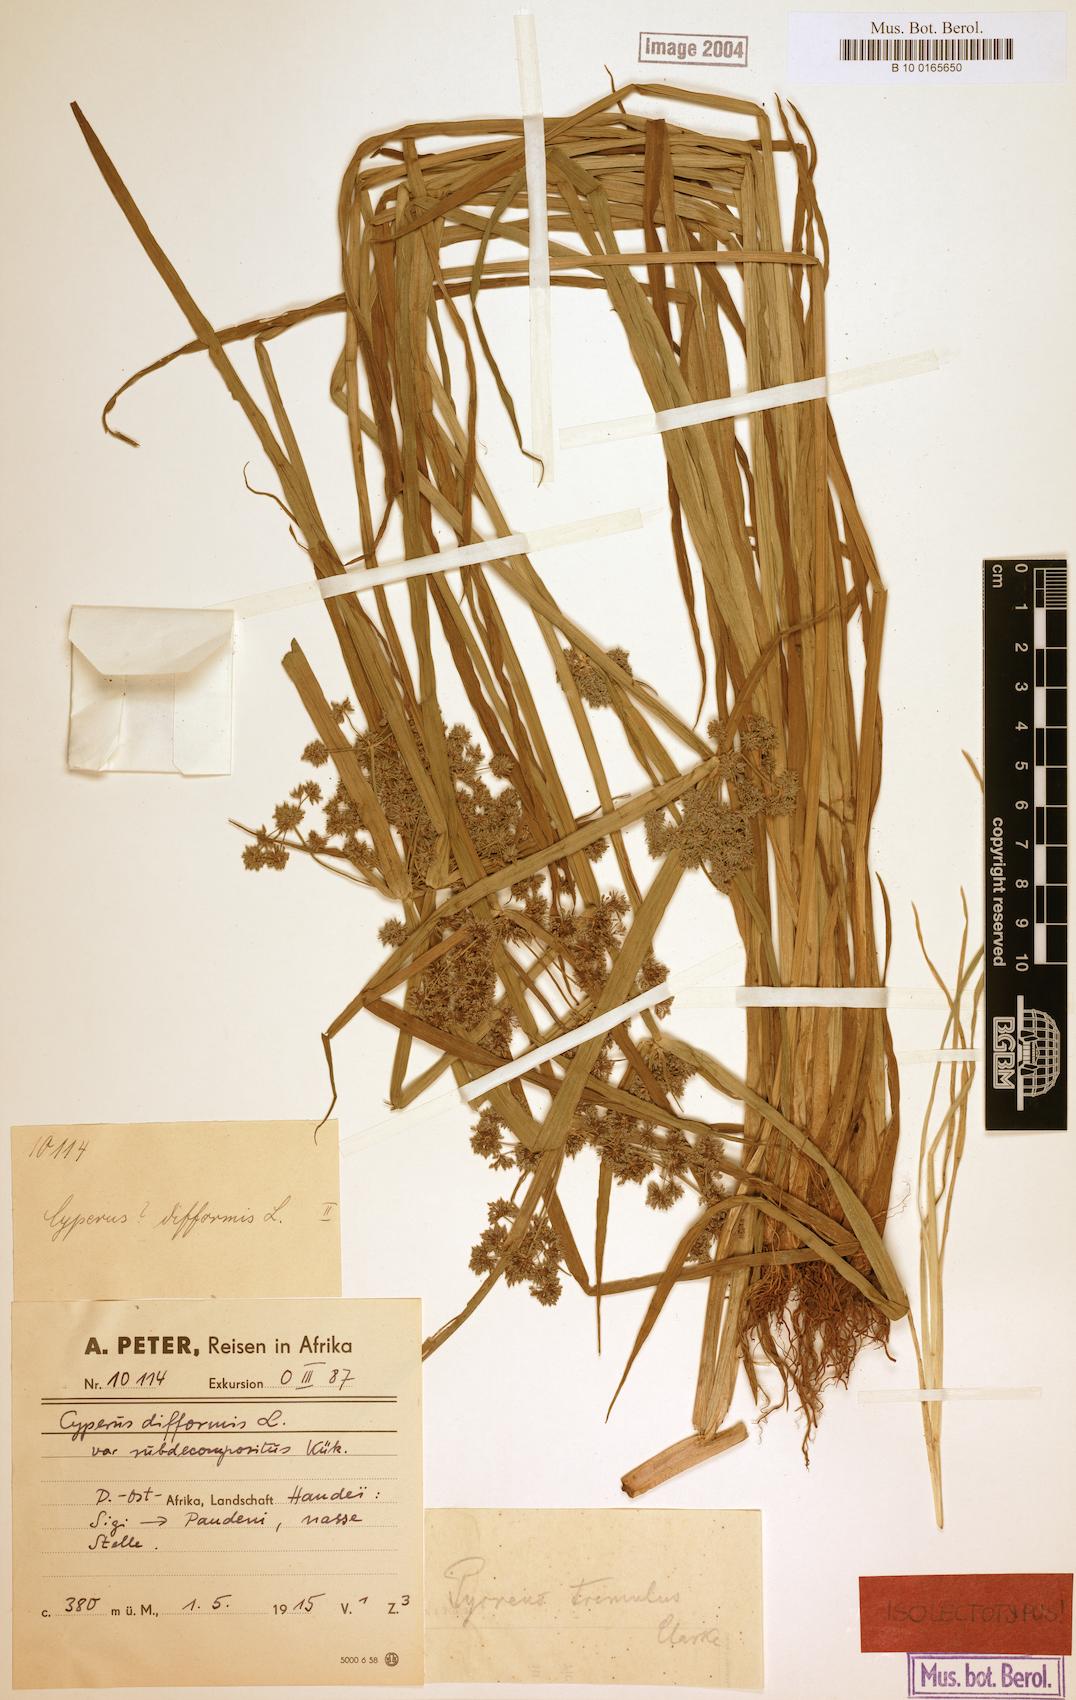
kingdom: Plantae
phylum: Tracheophyta
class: Liliopsida
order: Poales
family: Cyperaceae
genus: Cyperus
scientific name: Cyperus difformis
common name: Variable flatsedge
